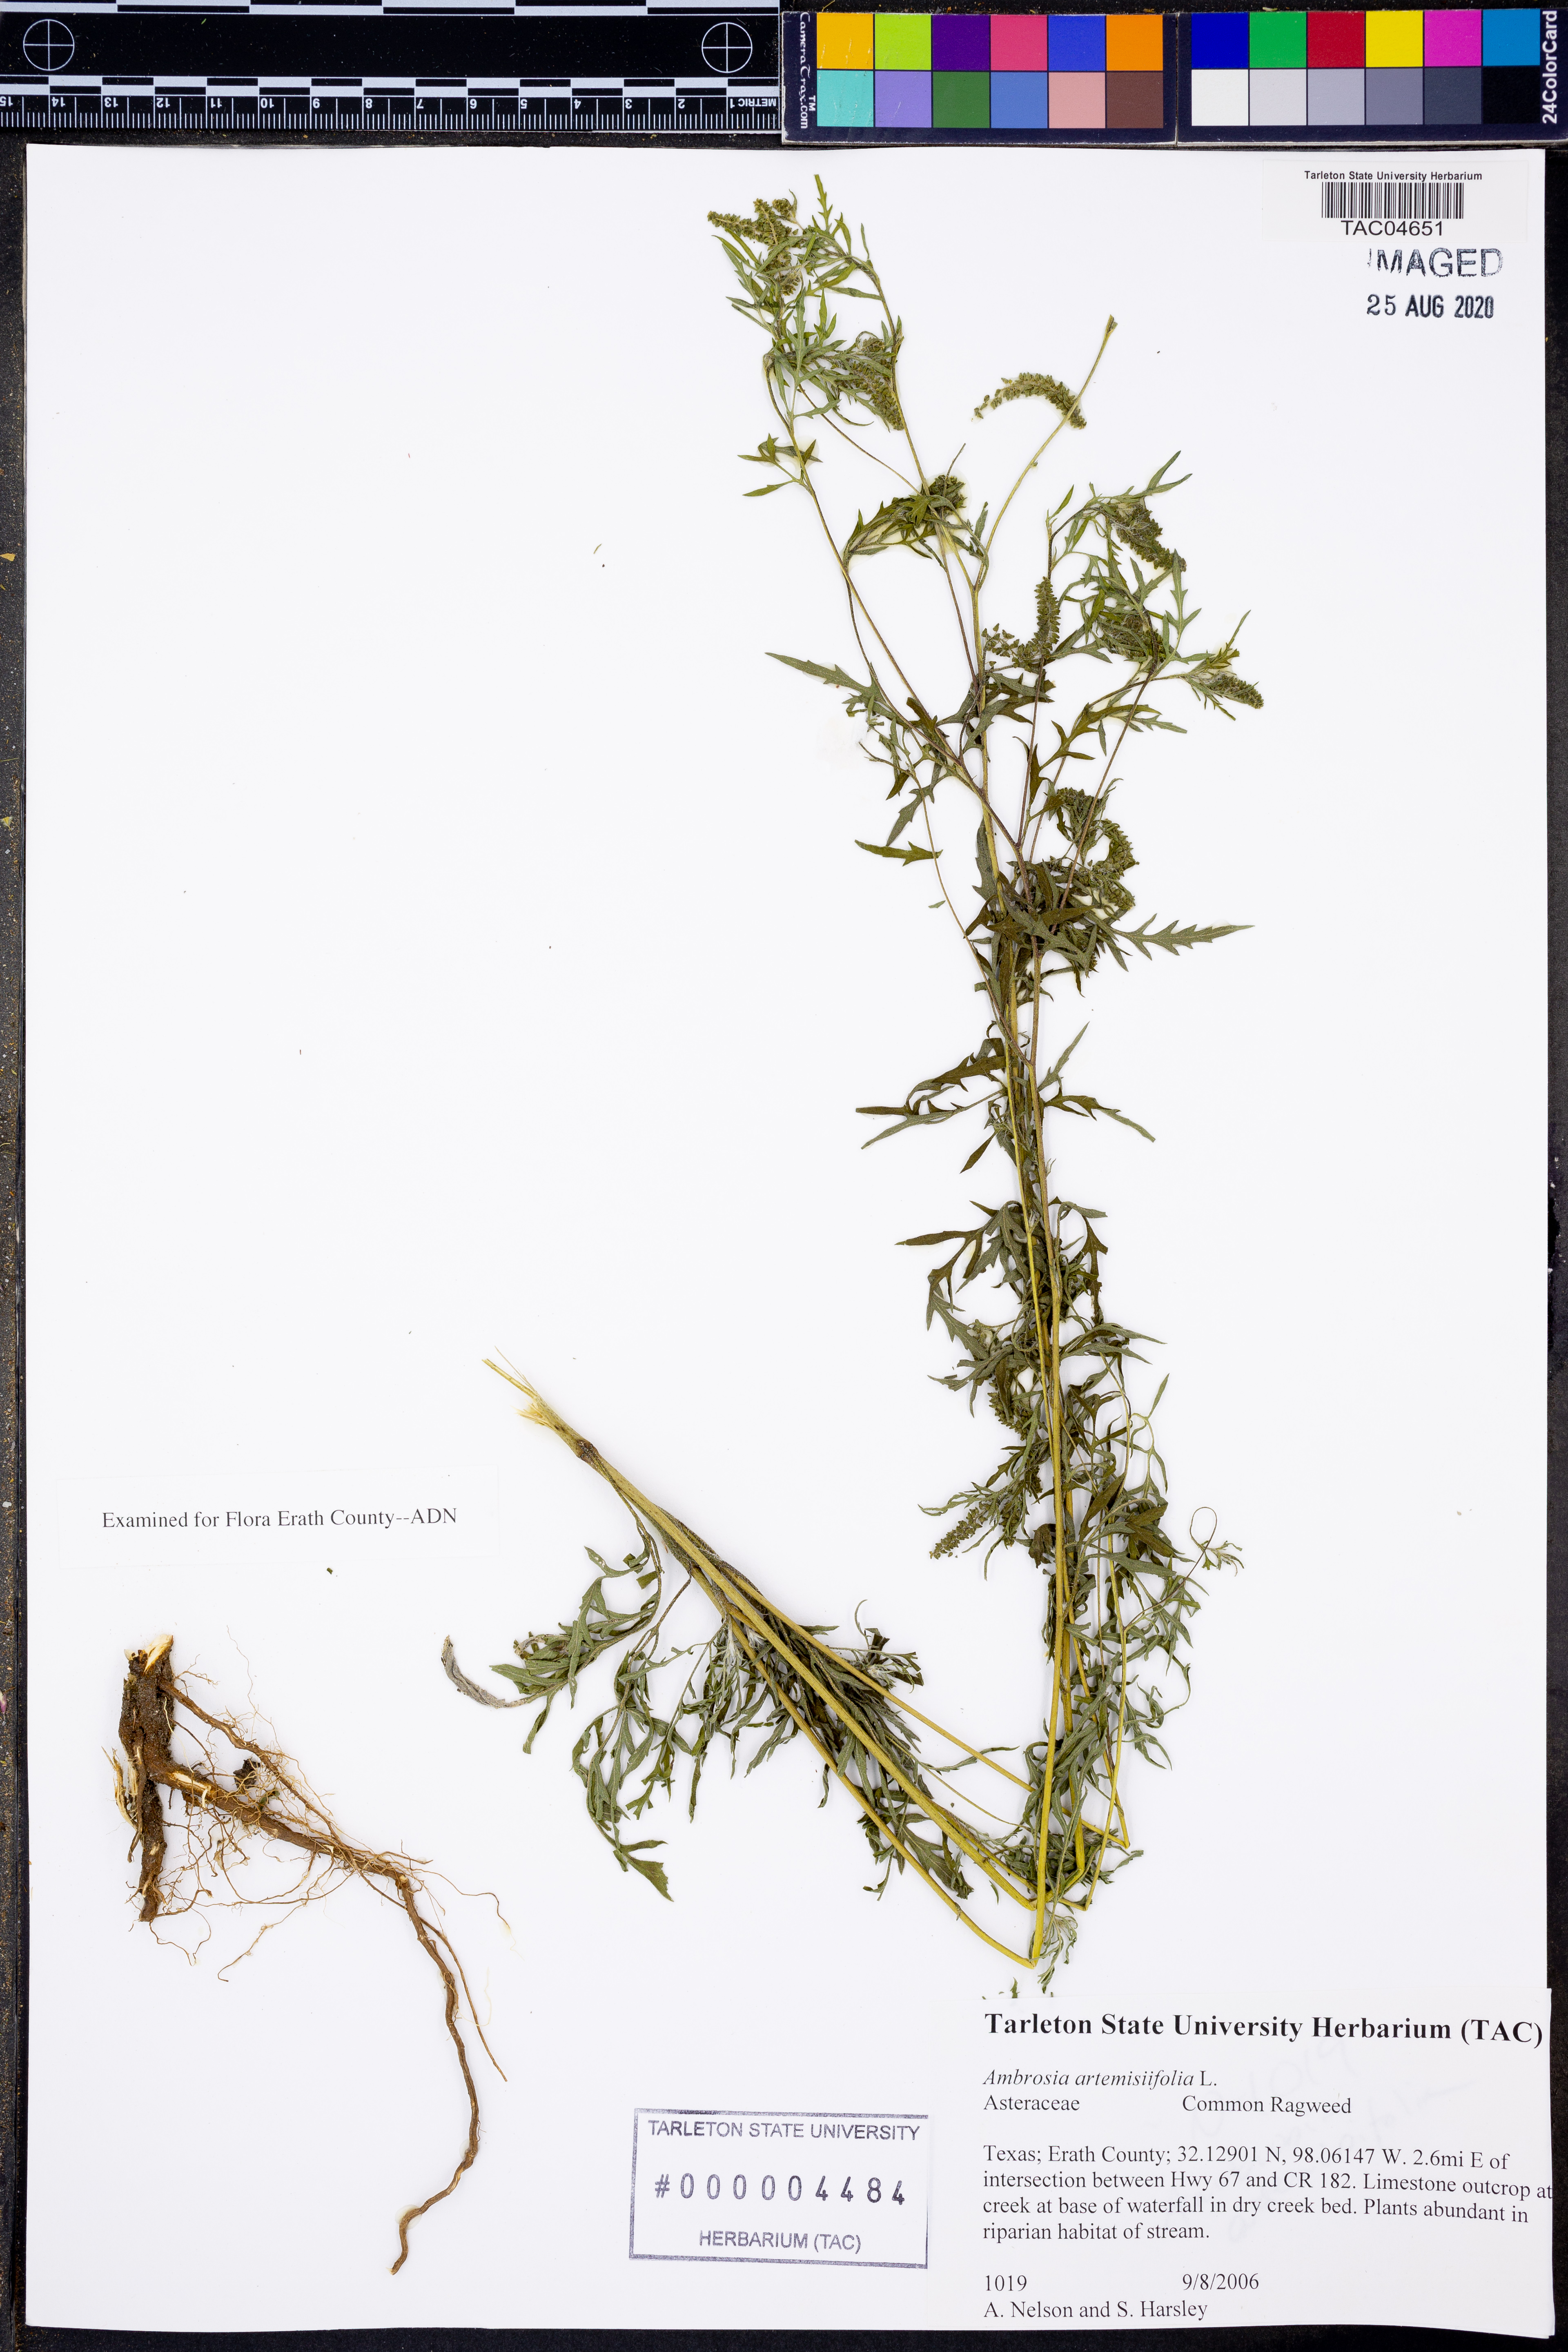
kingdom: Plantae
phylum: Tracheophyta
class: Magnoliopsida
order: Asterales
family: Asteraceae
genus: Ambrosia
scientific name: Ambrosia artemisiifolia
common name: Annual ragweed
